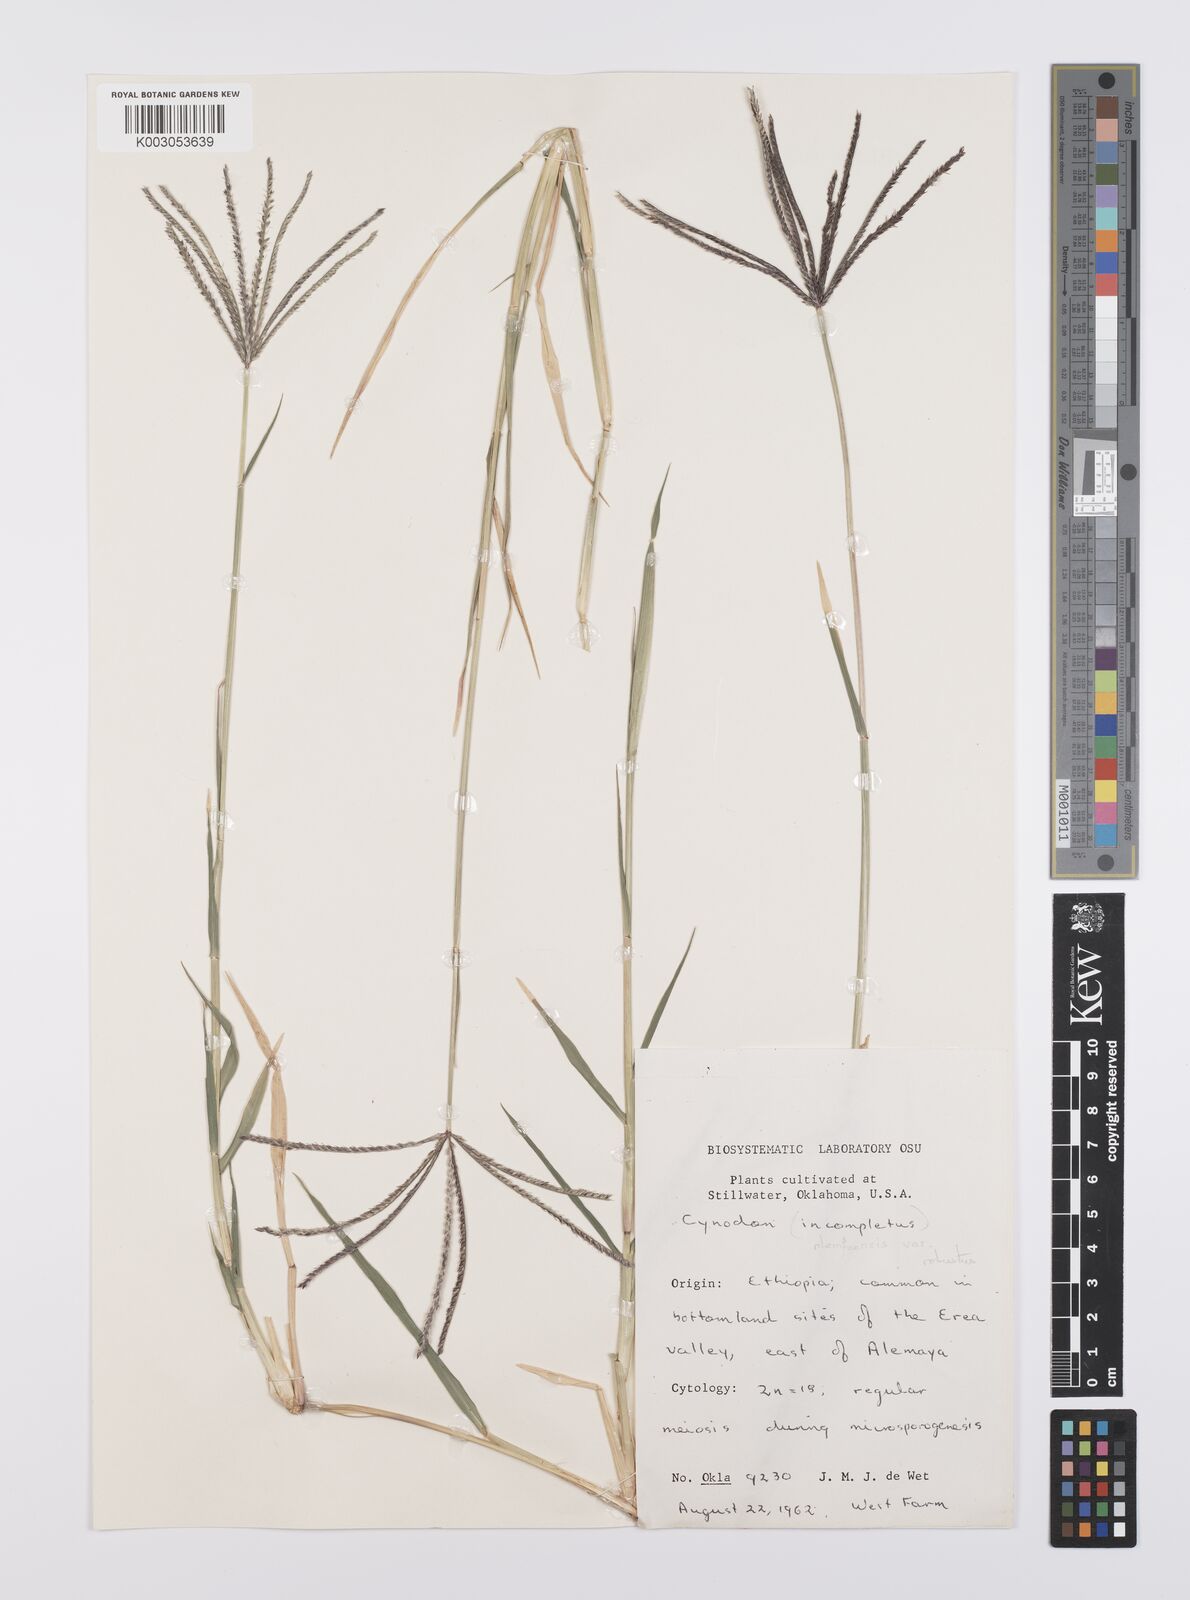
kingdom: Plantae
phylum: Tracheophyta
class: Liliopsida
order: Poales
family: Poaceae
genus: Cynodon
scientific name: Cynodon nlemfuensis
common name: African bermudagrass
